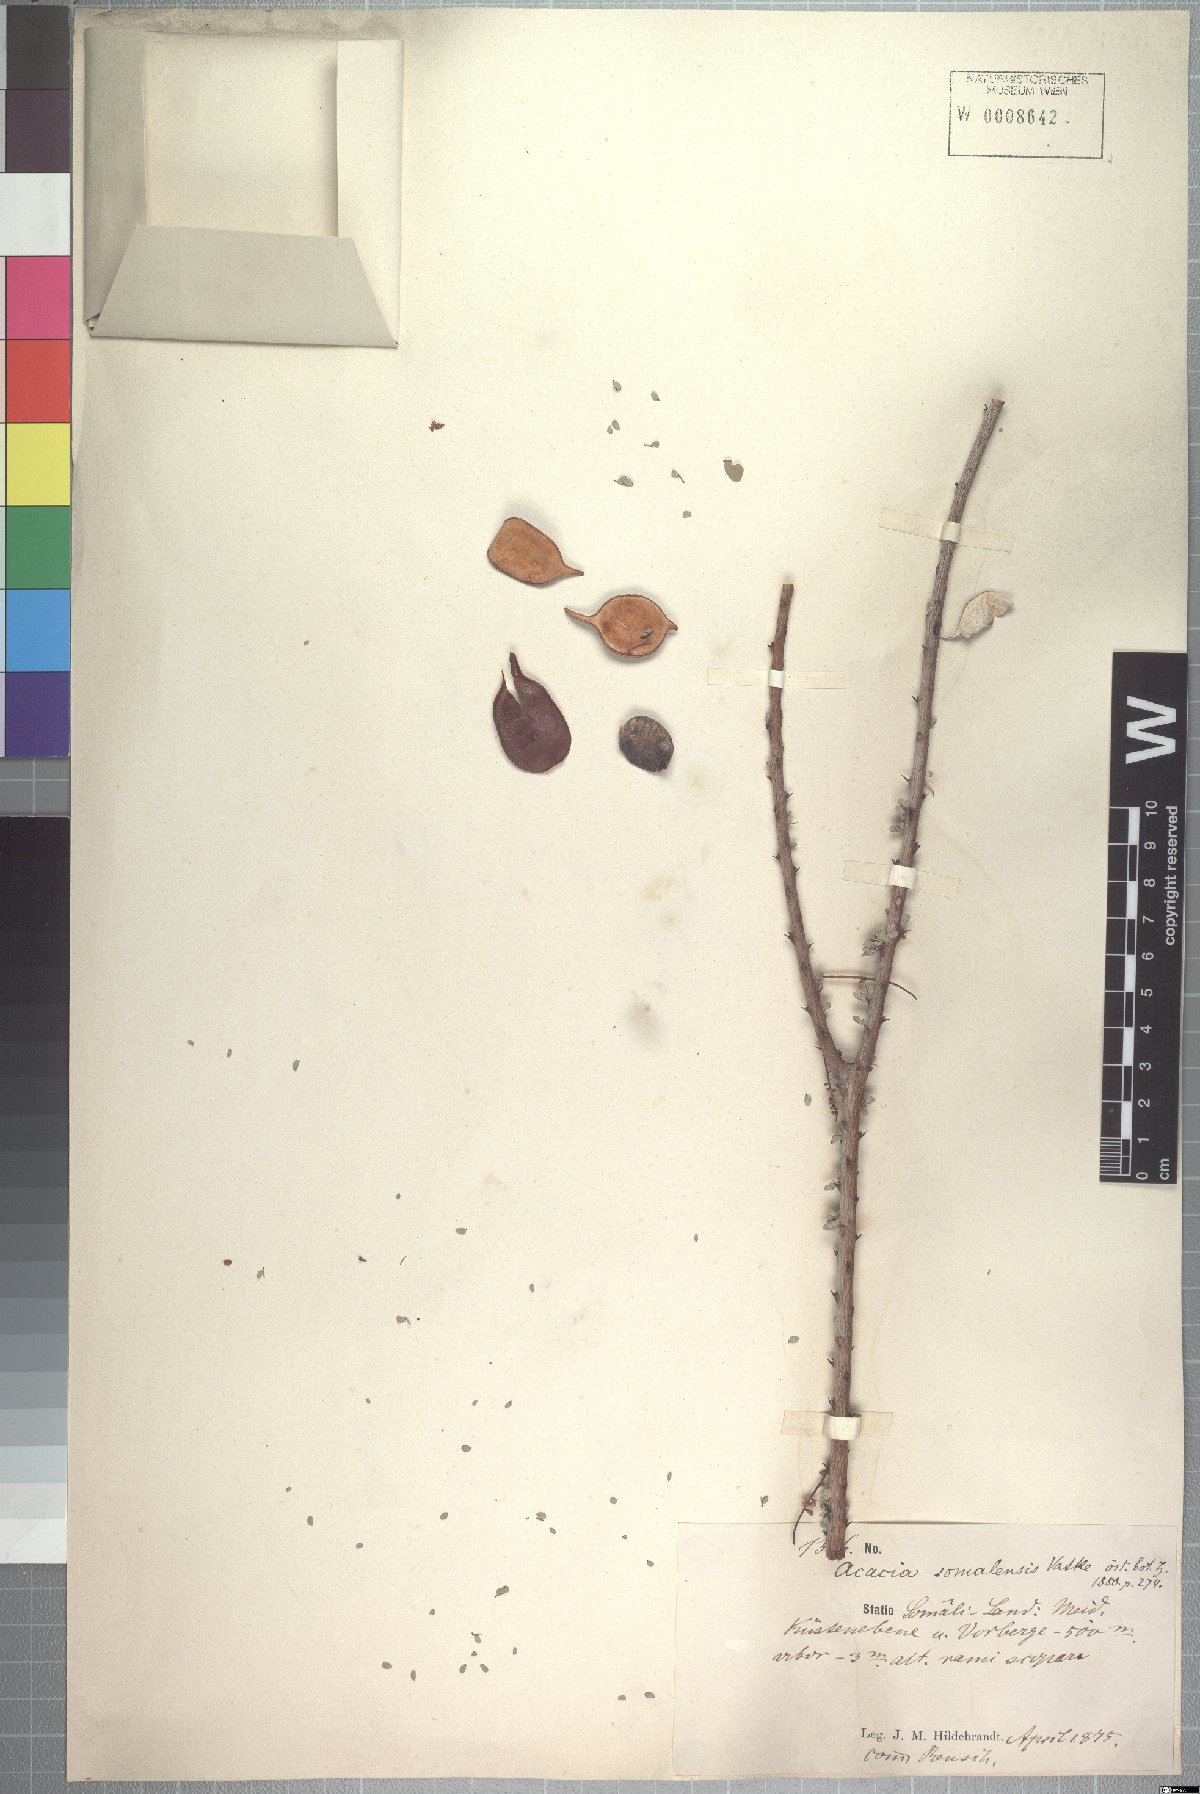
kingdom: Plantae
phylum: Tracheophyta
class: Magnoliopsida
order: Fabales
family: Fabaceae
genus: Senegalia
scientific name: Senegalia somalensis
